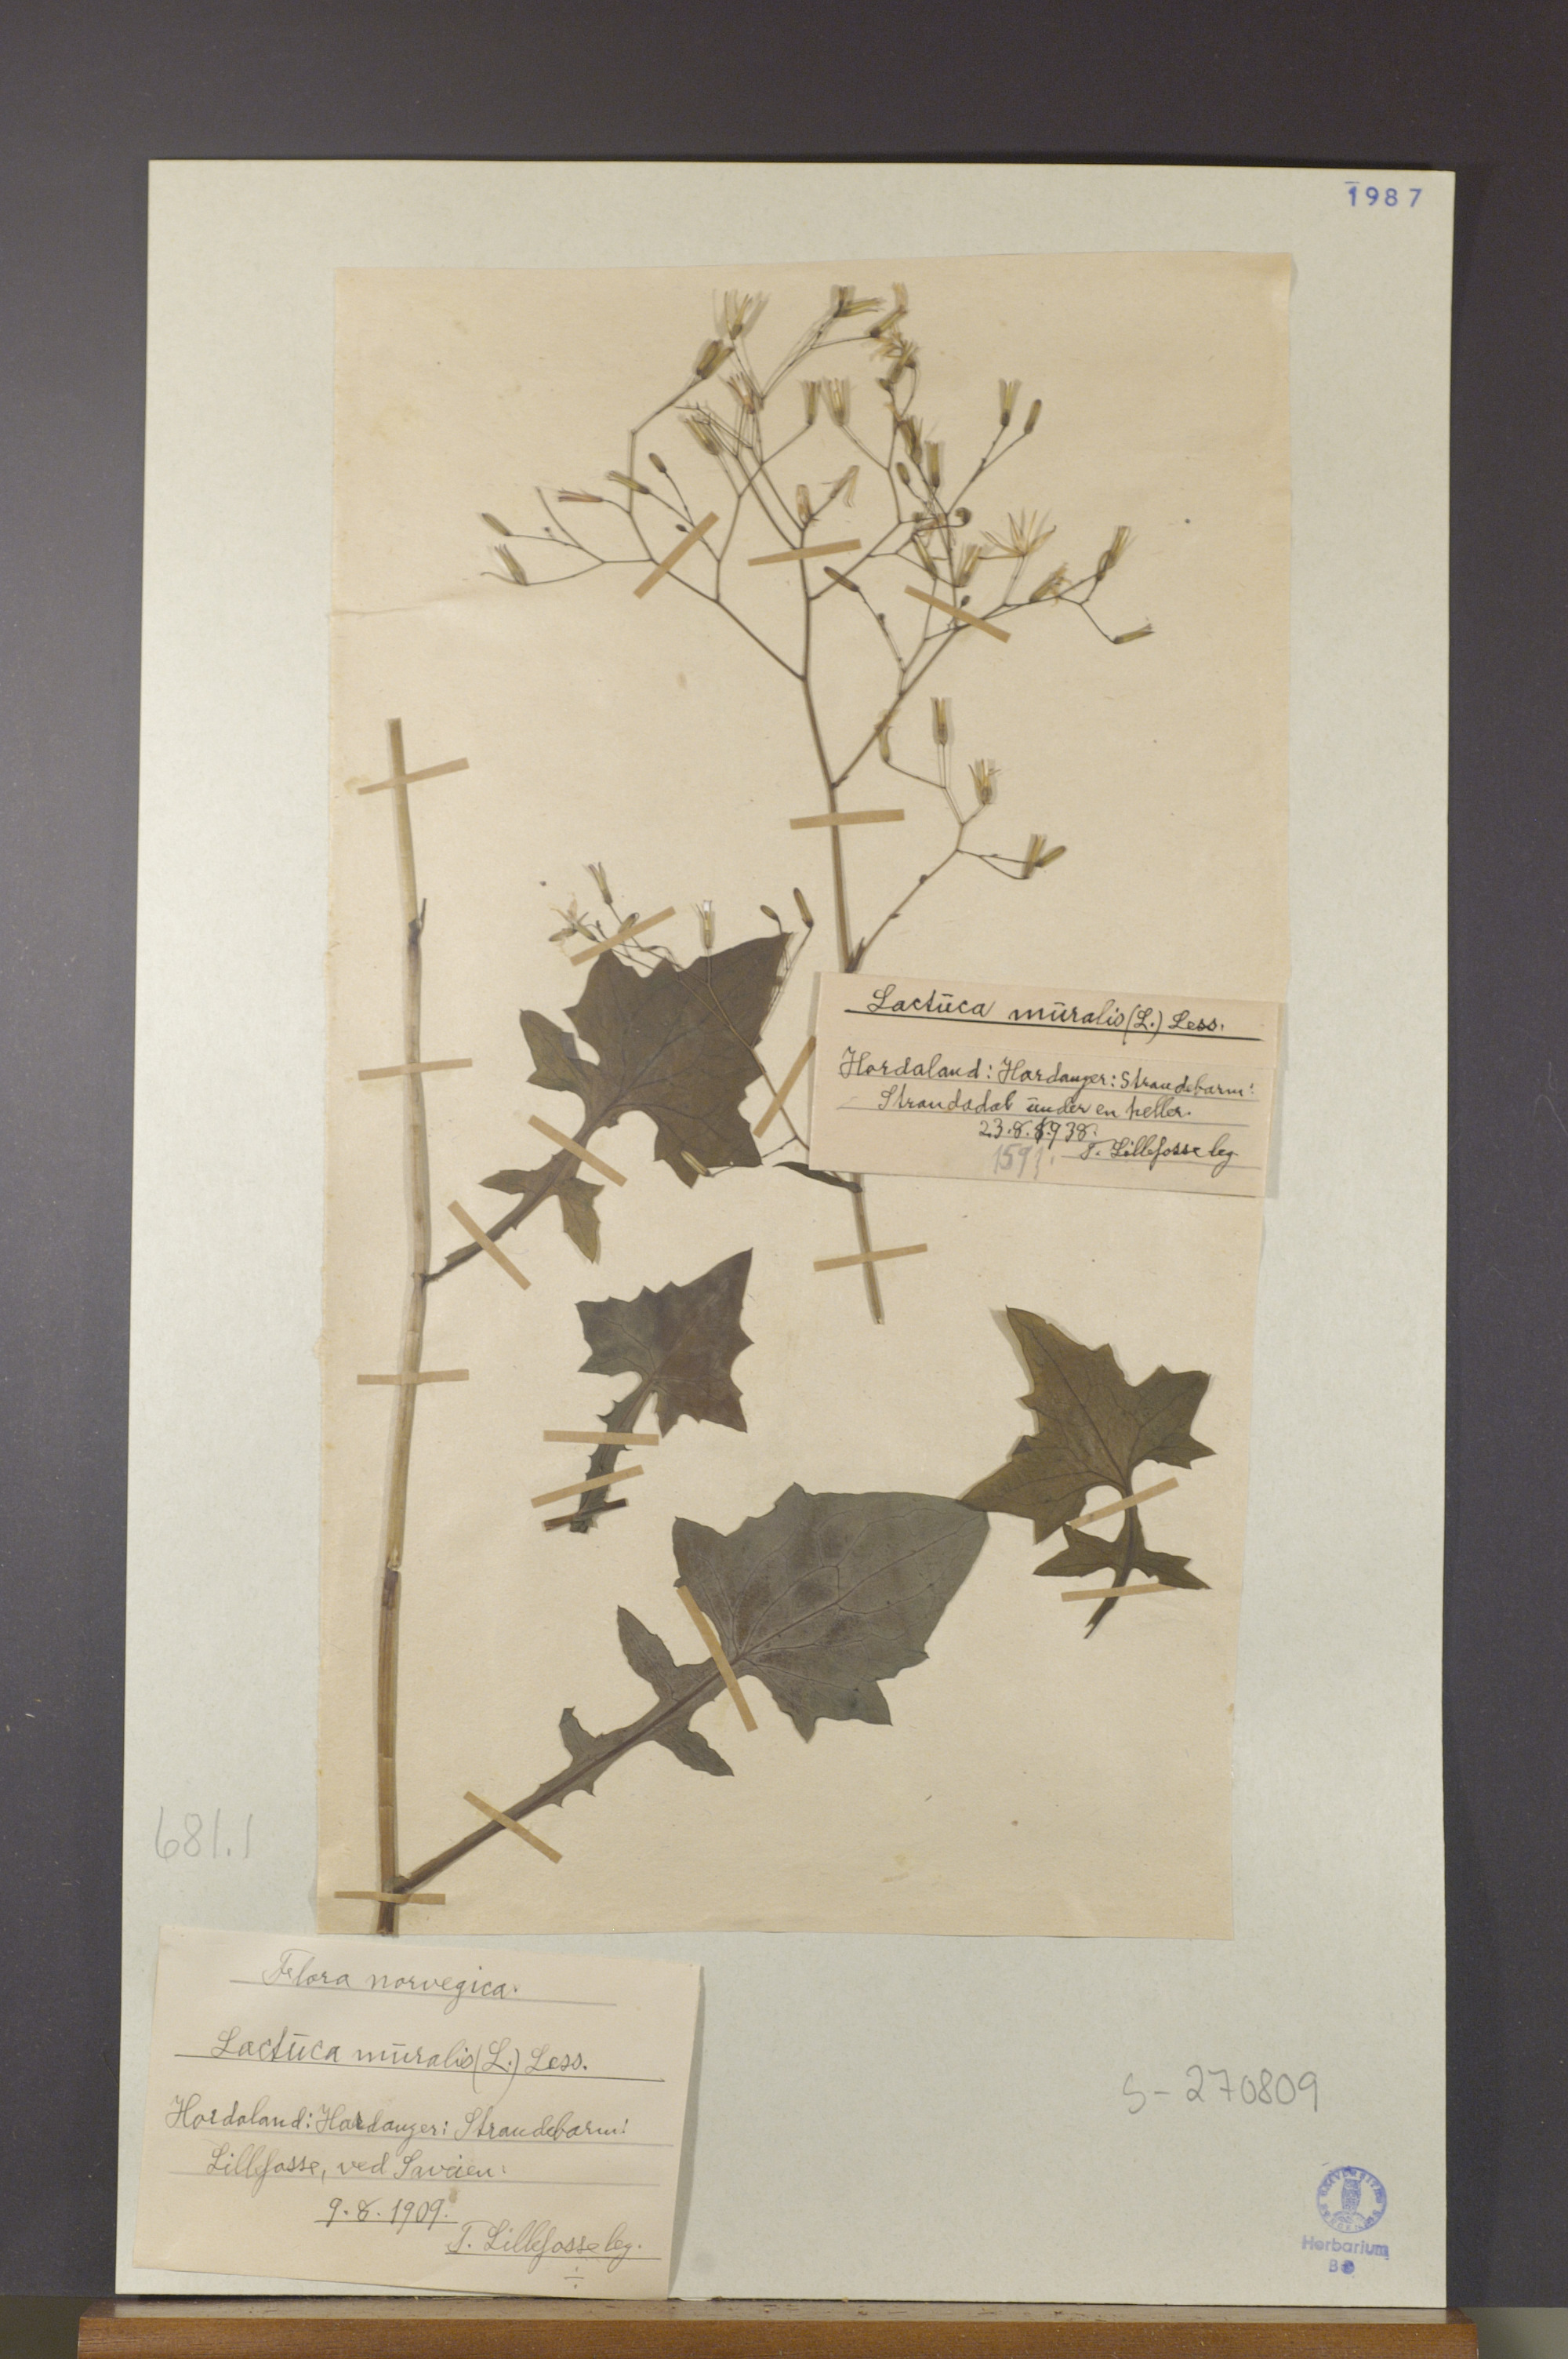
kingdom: Plantae
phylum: Tracheophyta
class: Magnoliopsida
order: Asterales
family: Asteraceae
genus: Mycelis
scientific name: Mycelis muralis
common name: Wall lettuce
